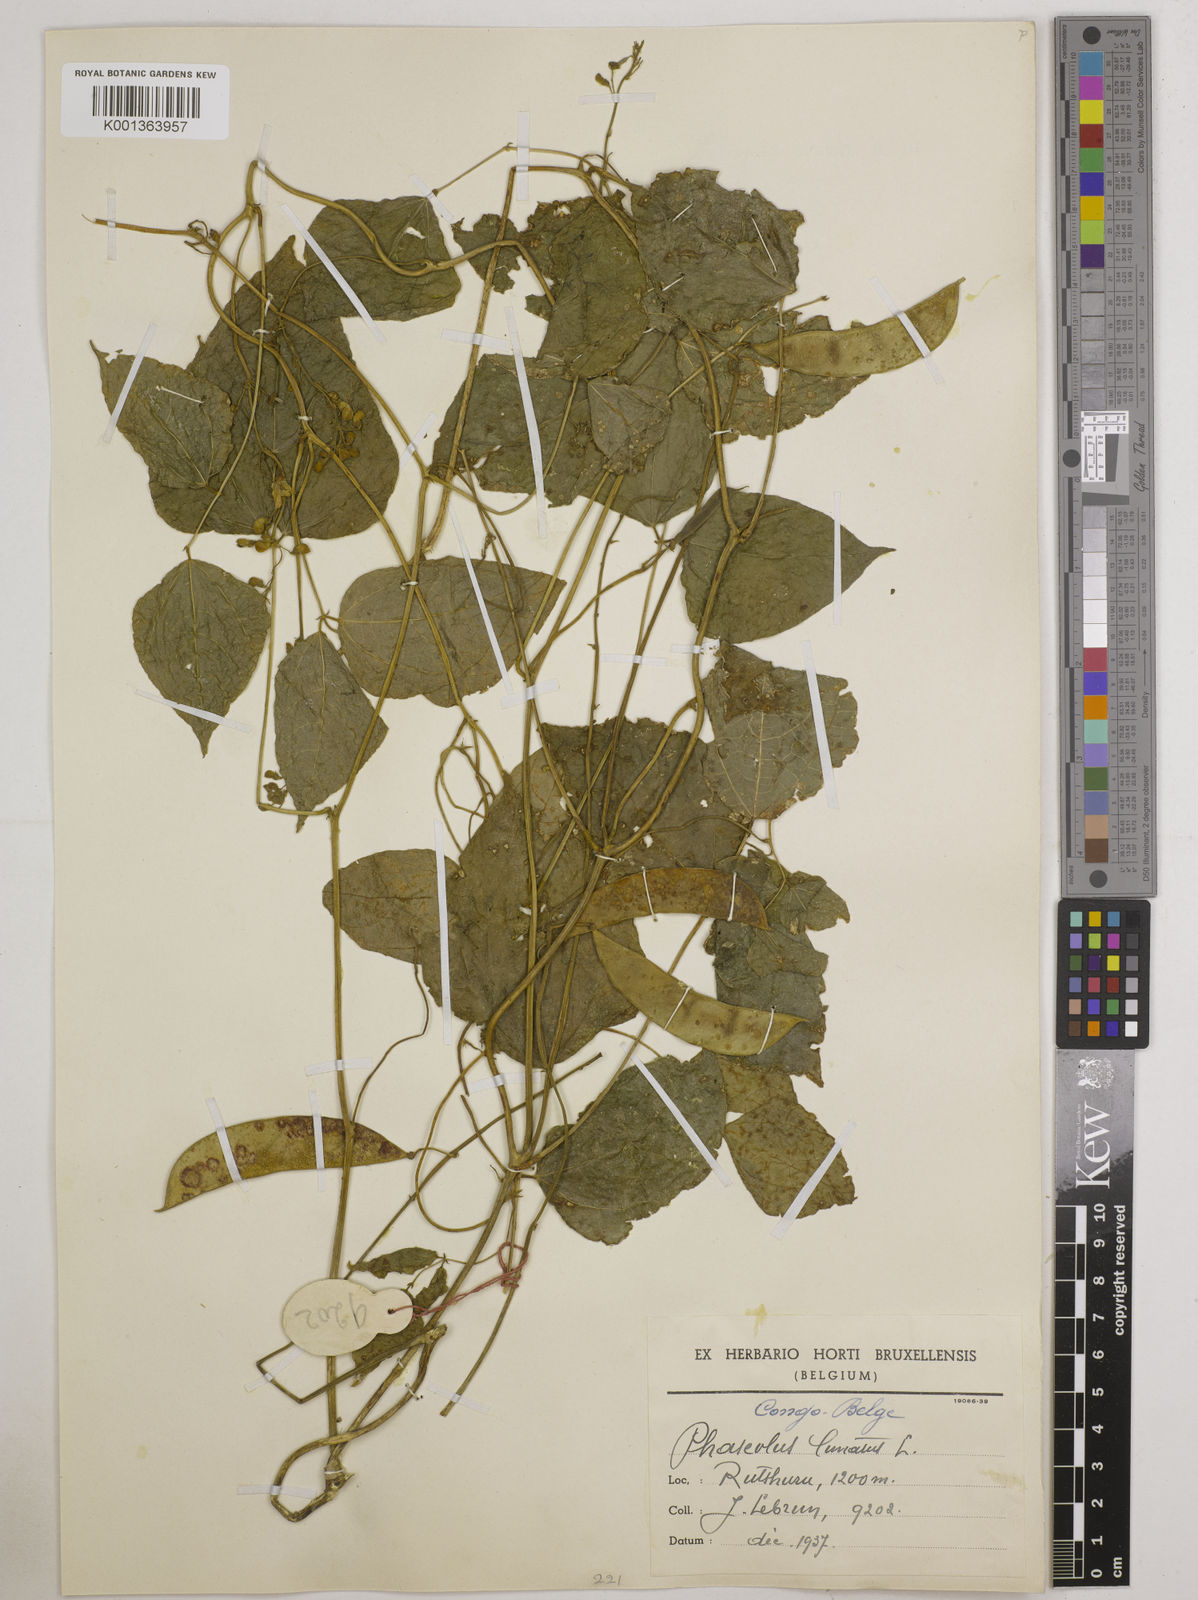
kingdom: Plantae
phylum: Tracheophyta
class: Magnoliopsida
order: Fabales
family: Fabaceae
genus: Phaseolus
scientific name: Phaseolus lunatus
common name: Sieva bean
